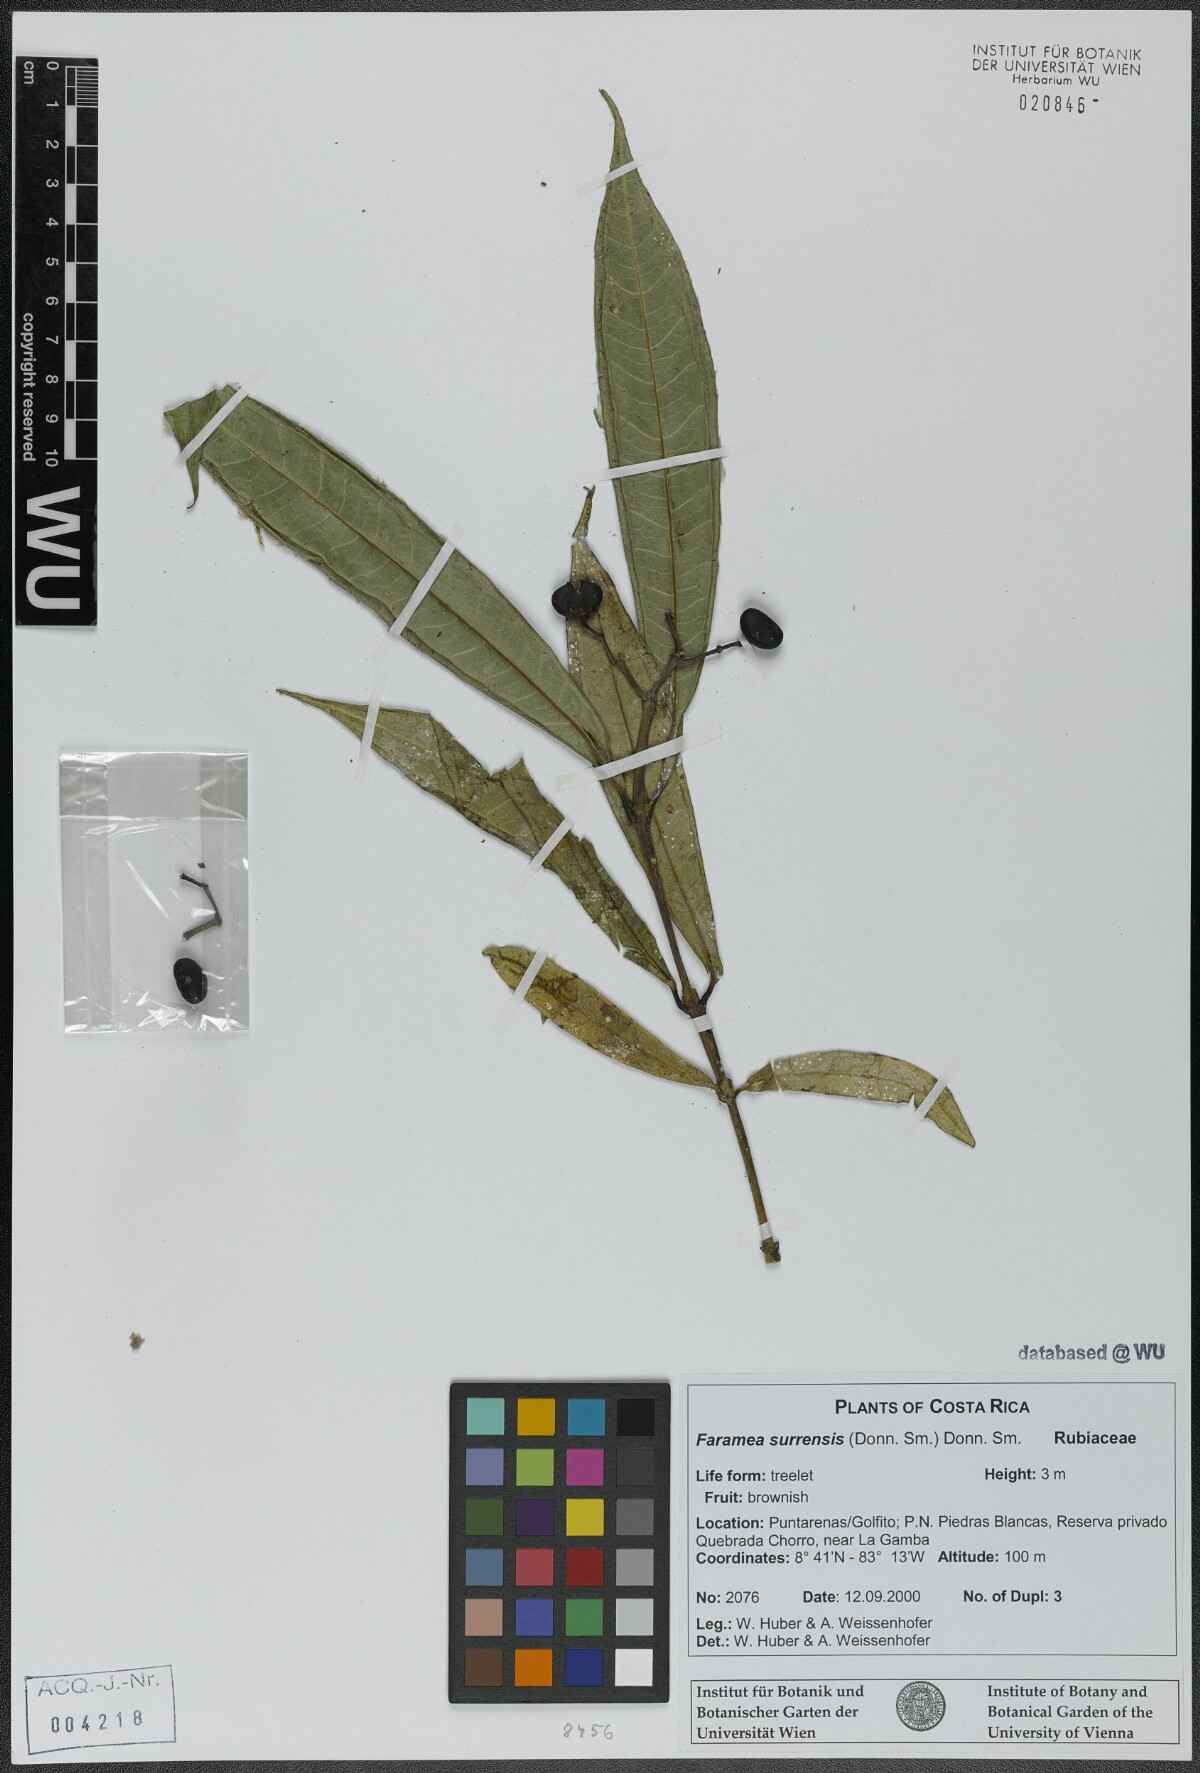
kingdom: Plantae
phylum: Tracheophyta
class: Magnoliopsida
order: Gentianales
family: Rubiaceae
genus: Faramea
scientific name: Faramea suerrensis
